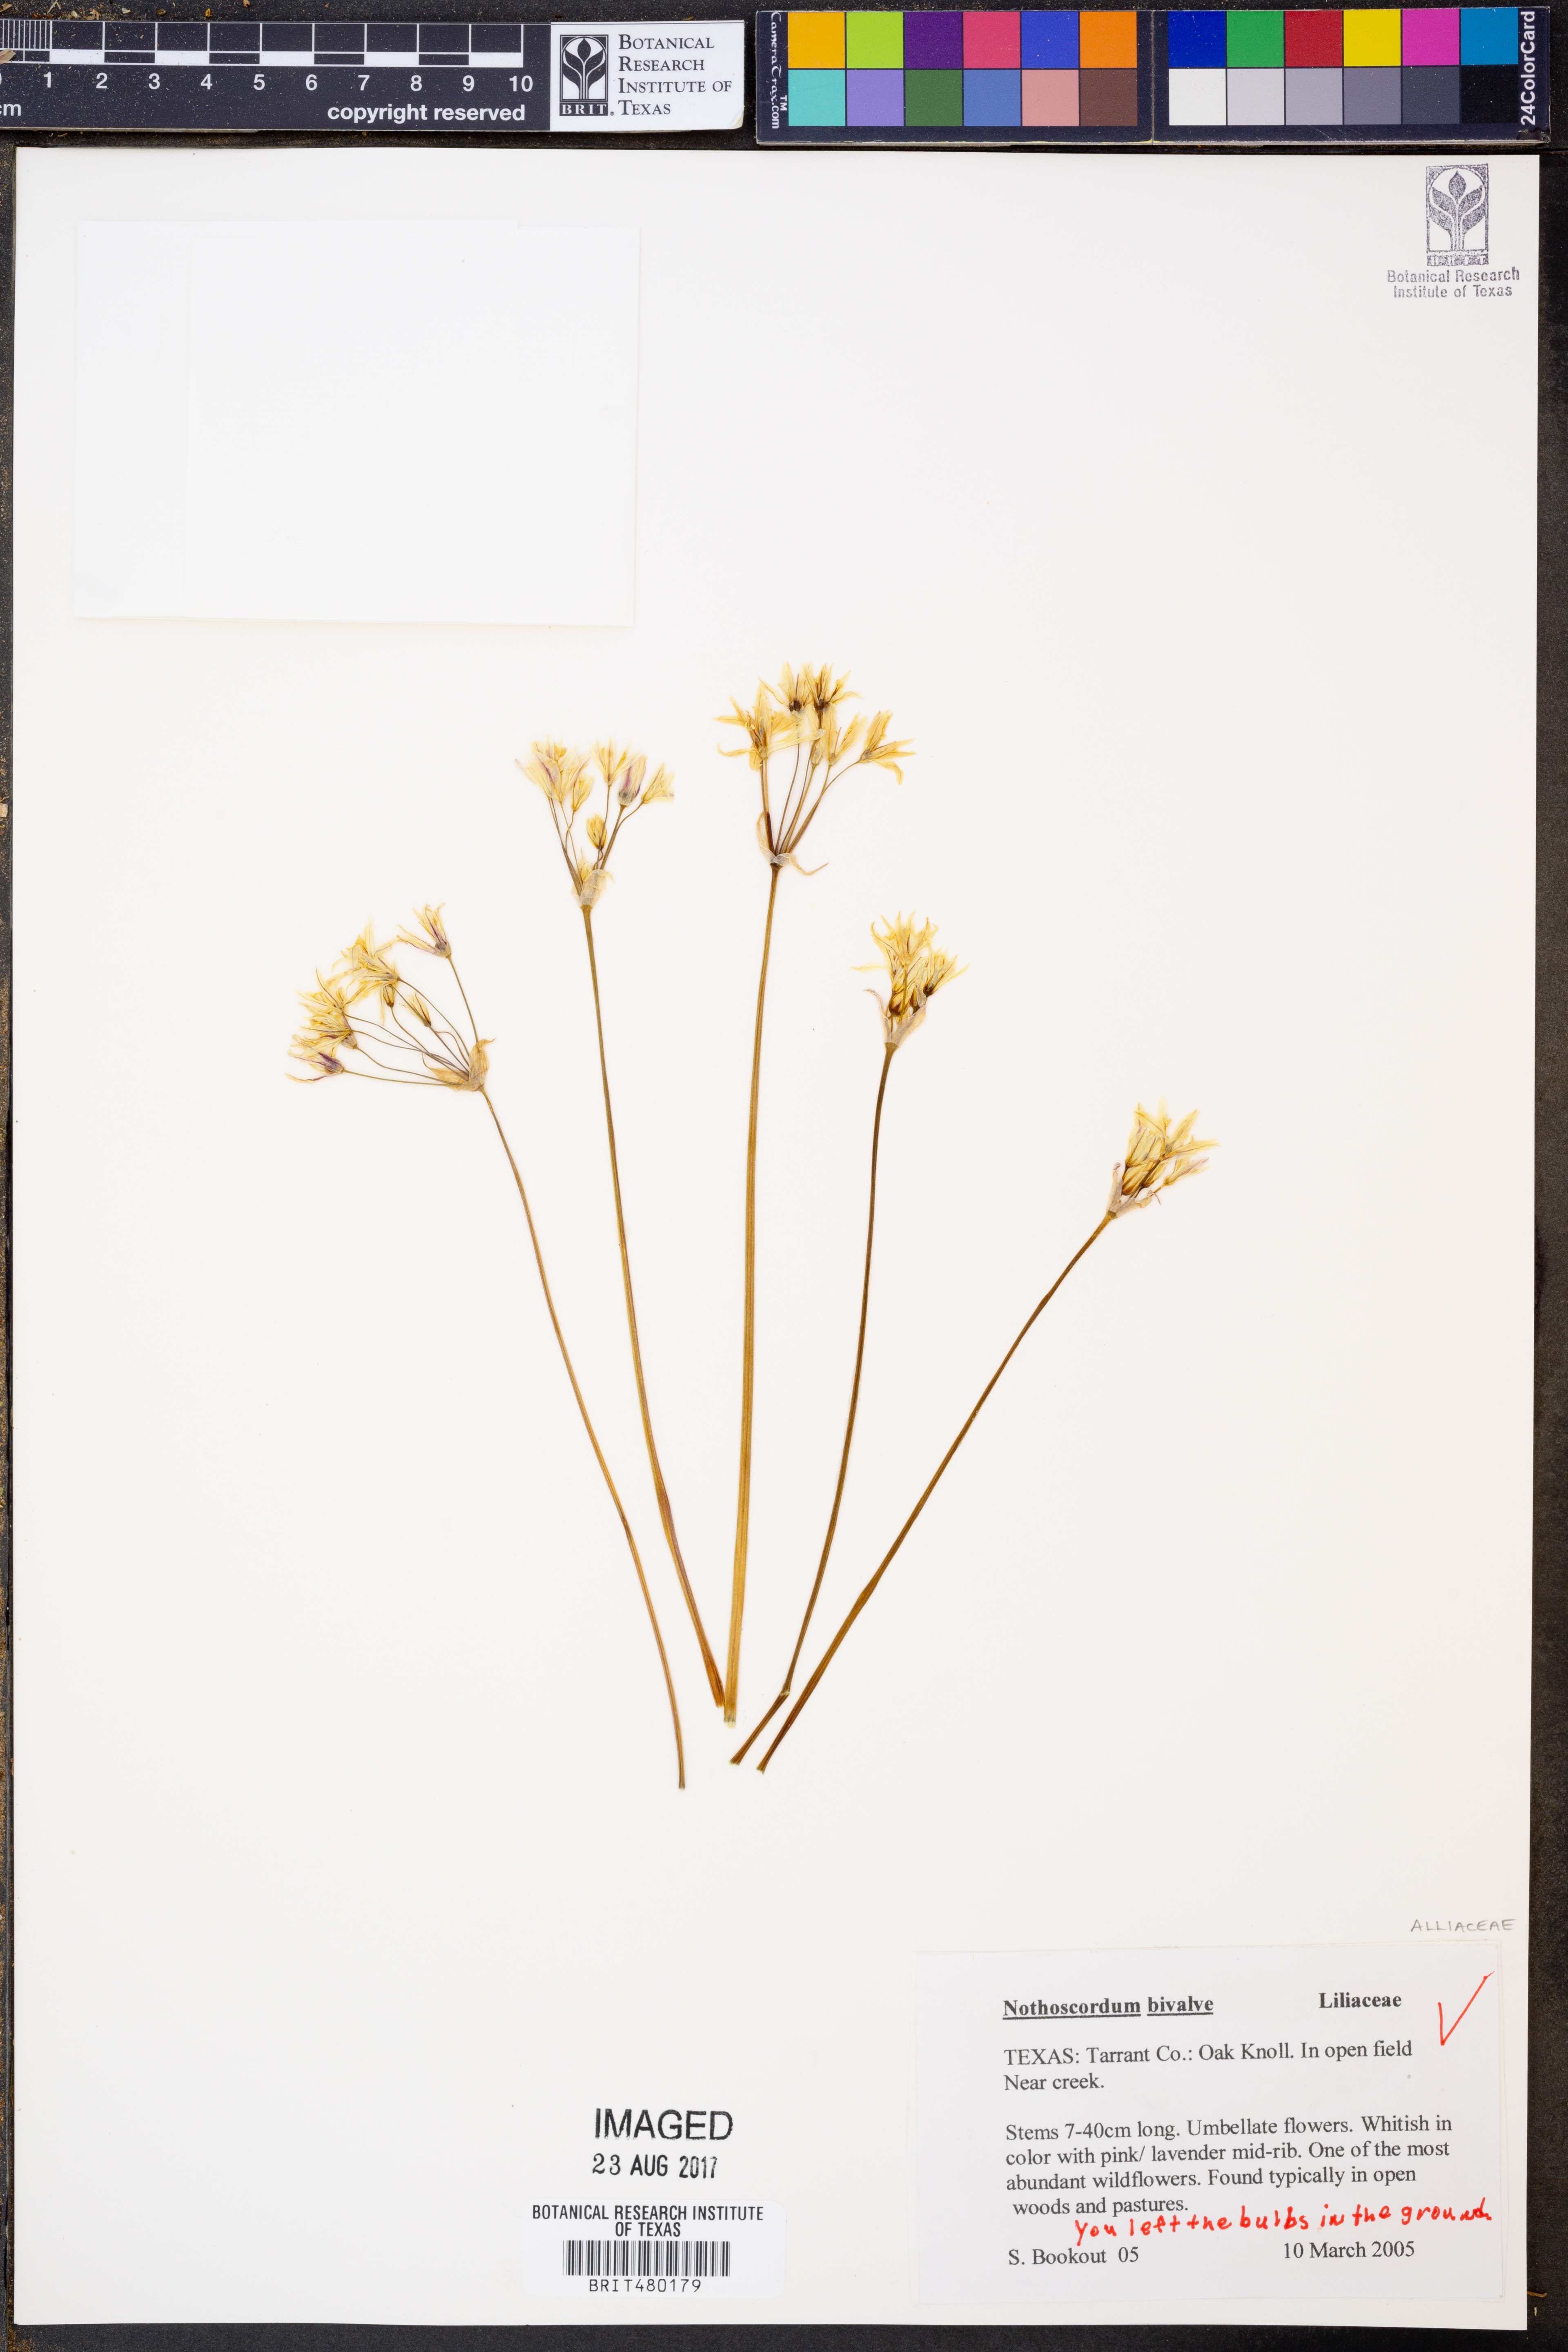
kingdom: Plantae
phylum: Tracheophyta
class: Liliopsida
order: Asparagales
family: Amaryllidaceae
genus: Nothoscordum
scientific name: Nothoscordum bivalve
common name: Crow-poison
